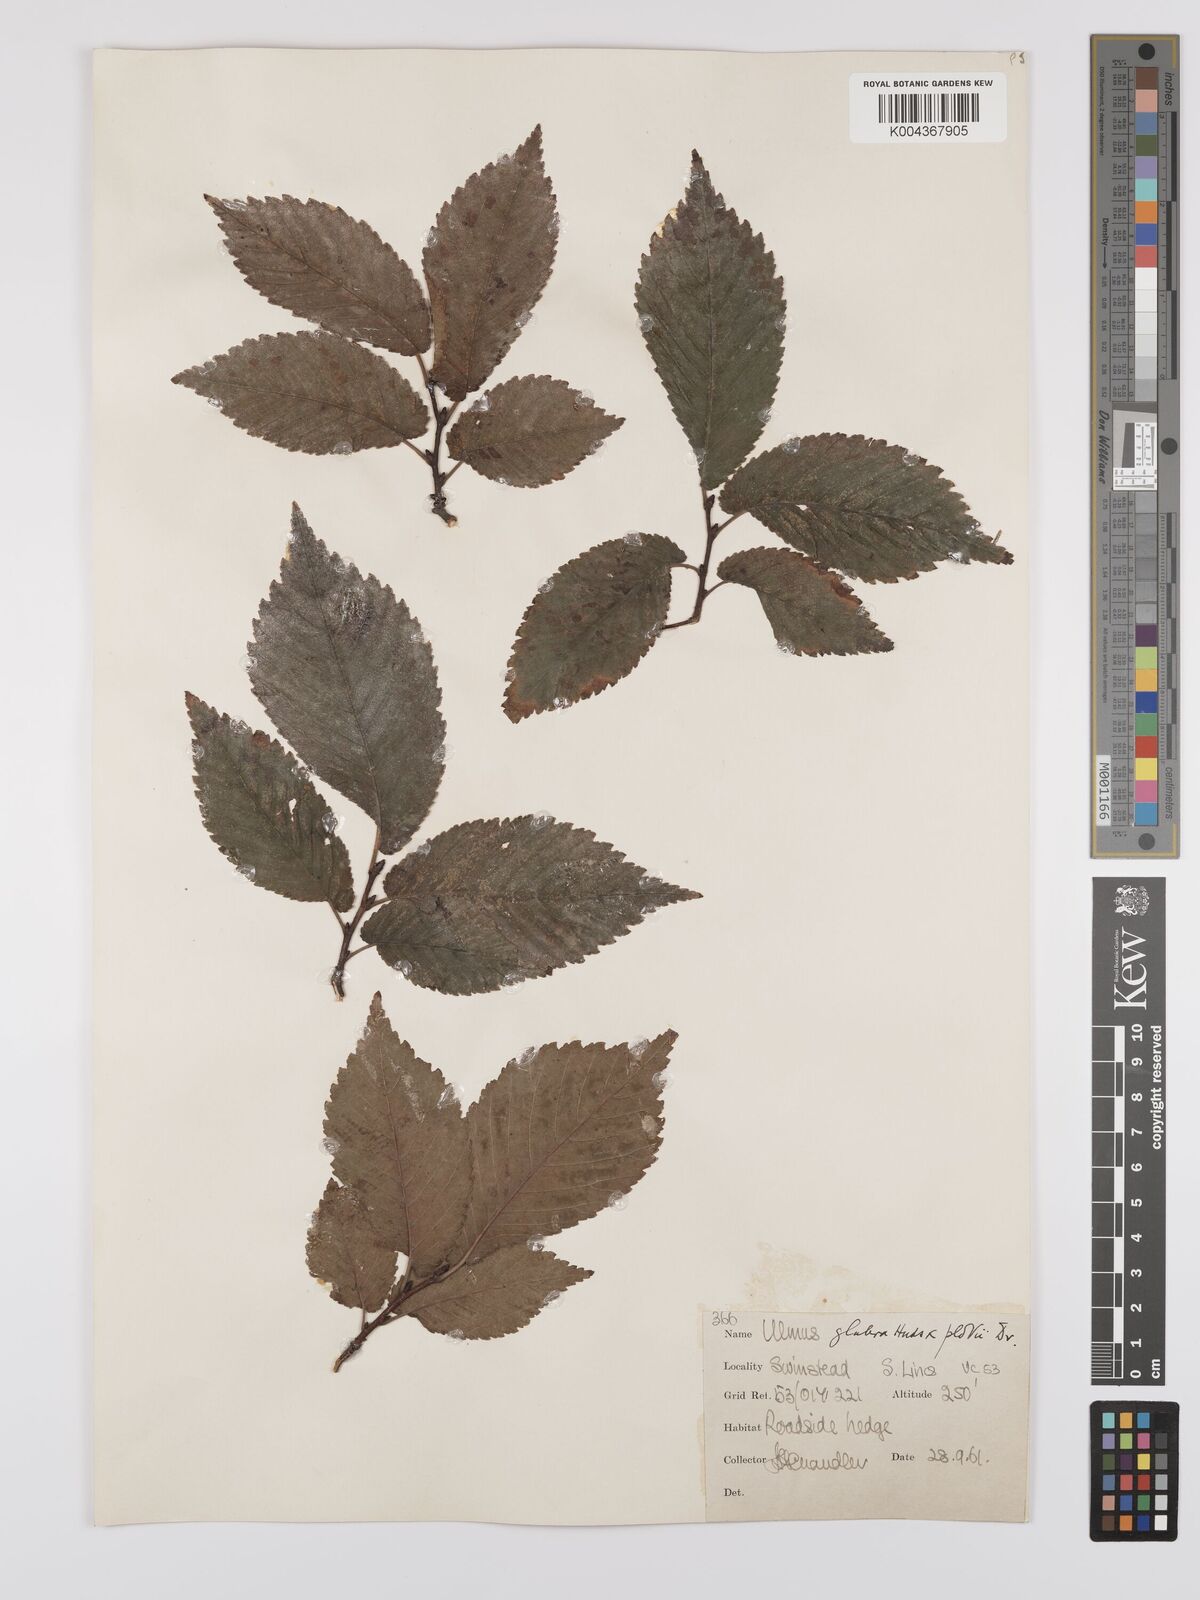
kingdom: Plantae
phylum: Tracheophyta
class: Magnoliopsida
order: Rosales
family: Ulmaceae
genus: Ulmus
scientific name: Ulmus glabra
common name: Wych elm
